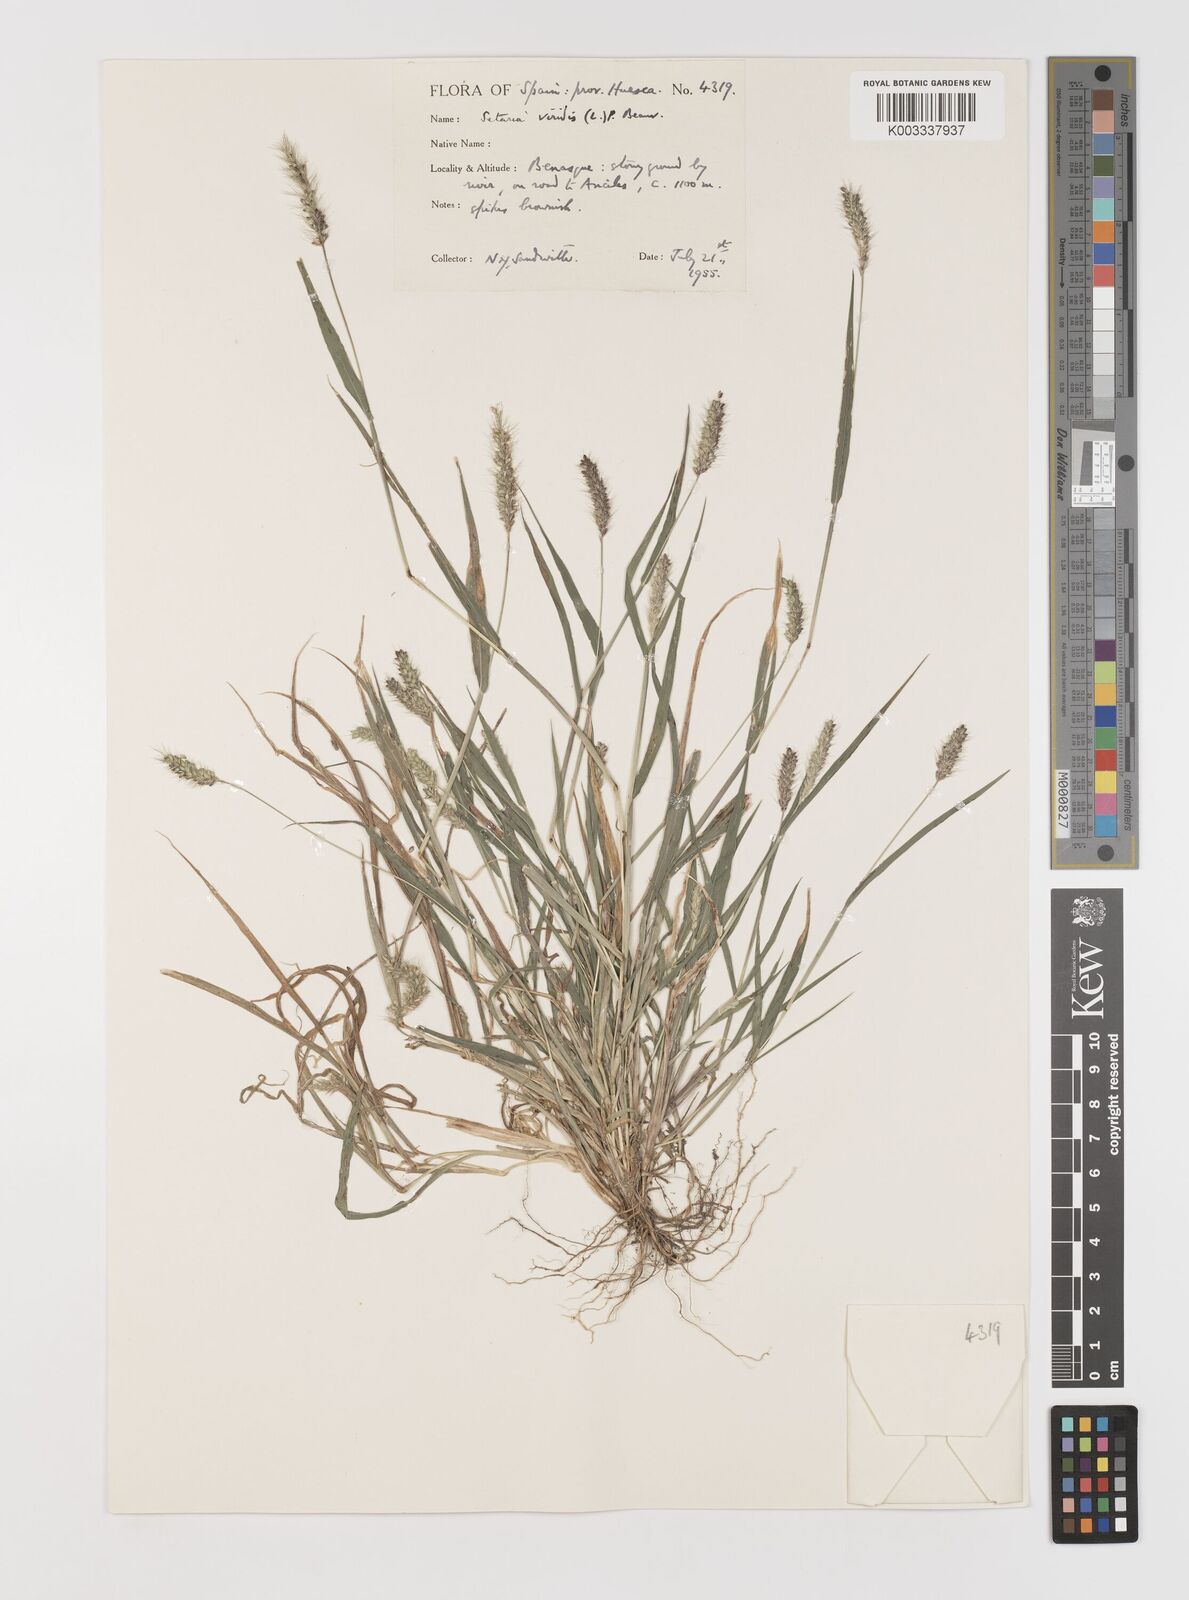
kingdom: Plantae
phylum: Tracheophyta
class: Liliopsida
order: Poales
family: Poaceae
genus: Setaria
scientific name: Setaria viridis
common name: Green bristlegrass
